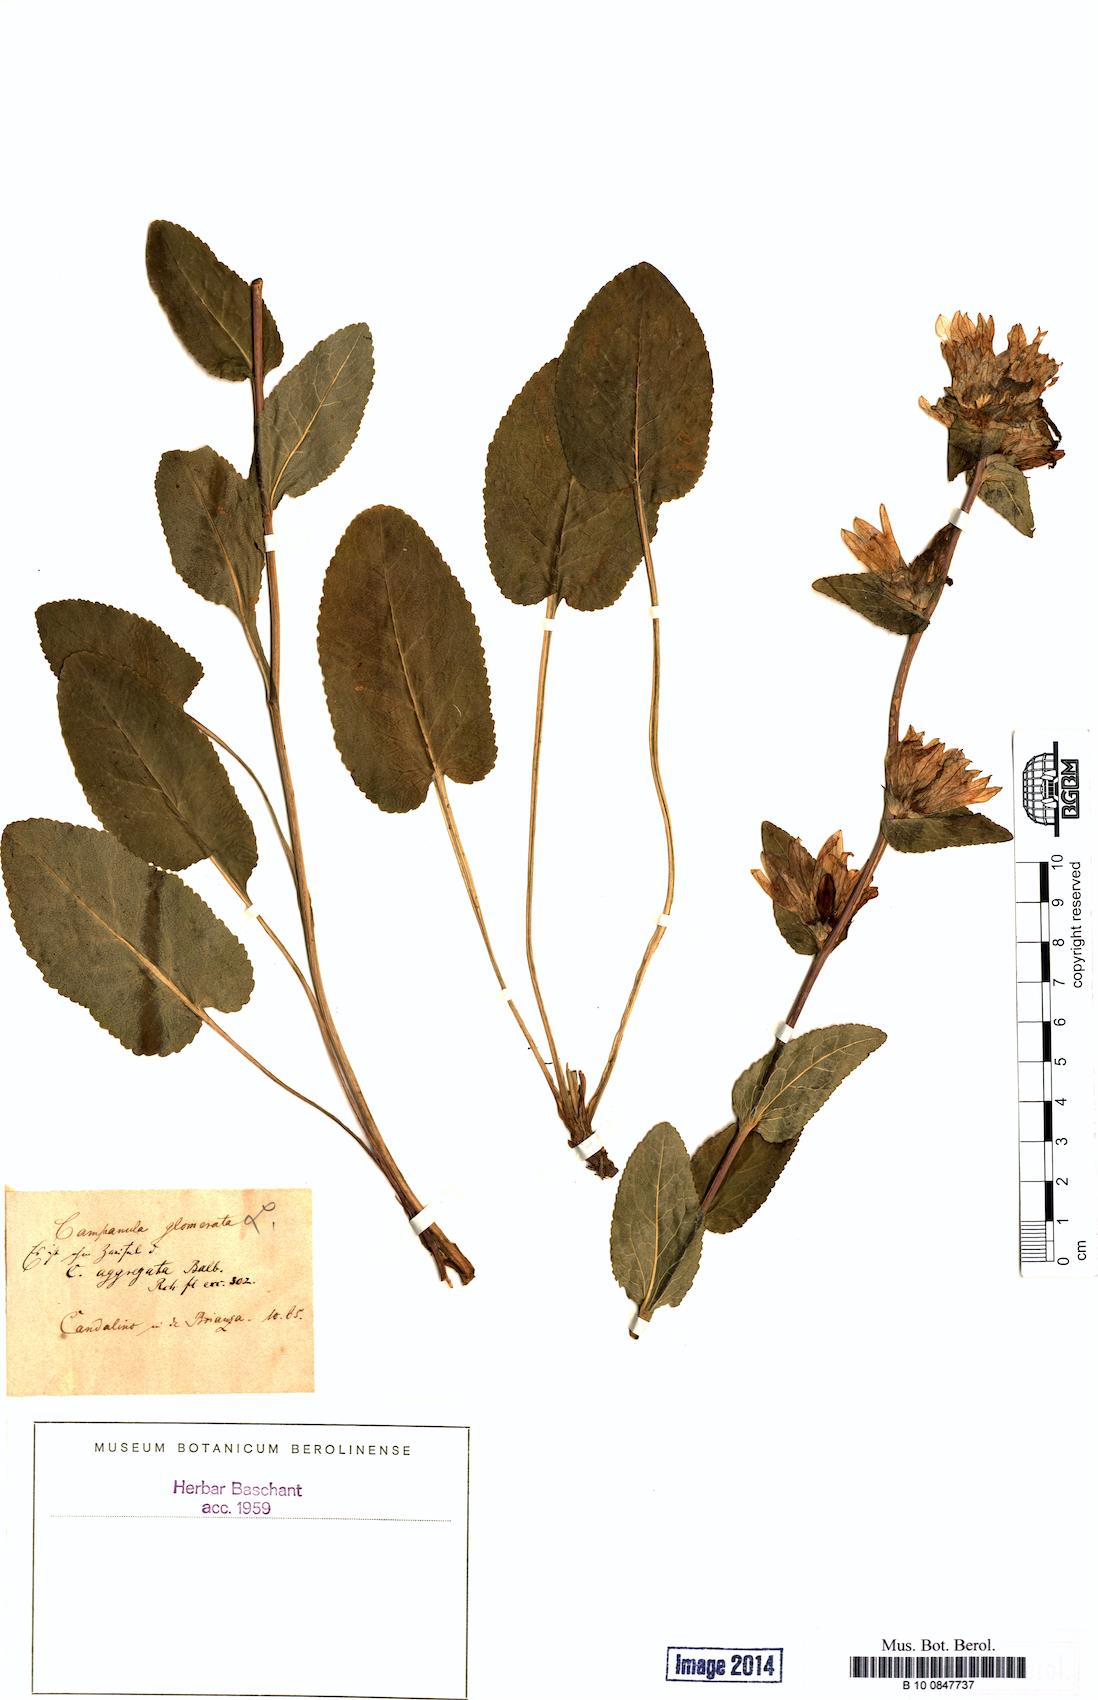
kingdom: Plantae
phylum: Tracheophyta
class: Magnoliopsida
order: Asterales
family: Campanulaceae
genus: Campanula
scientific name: Campanula glomerata
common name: Clustered bellflower
